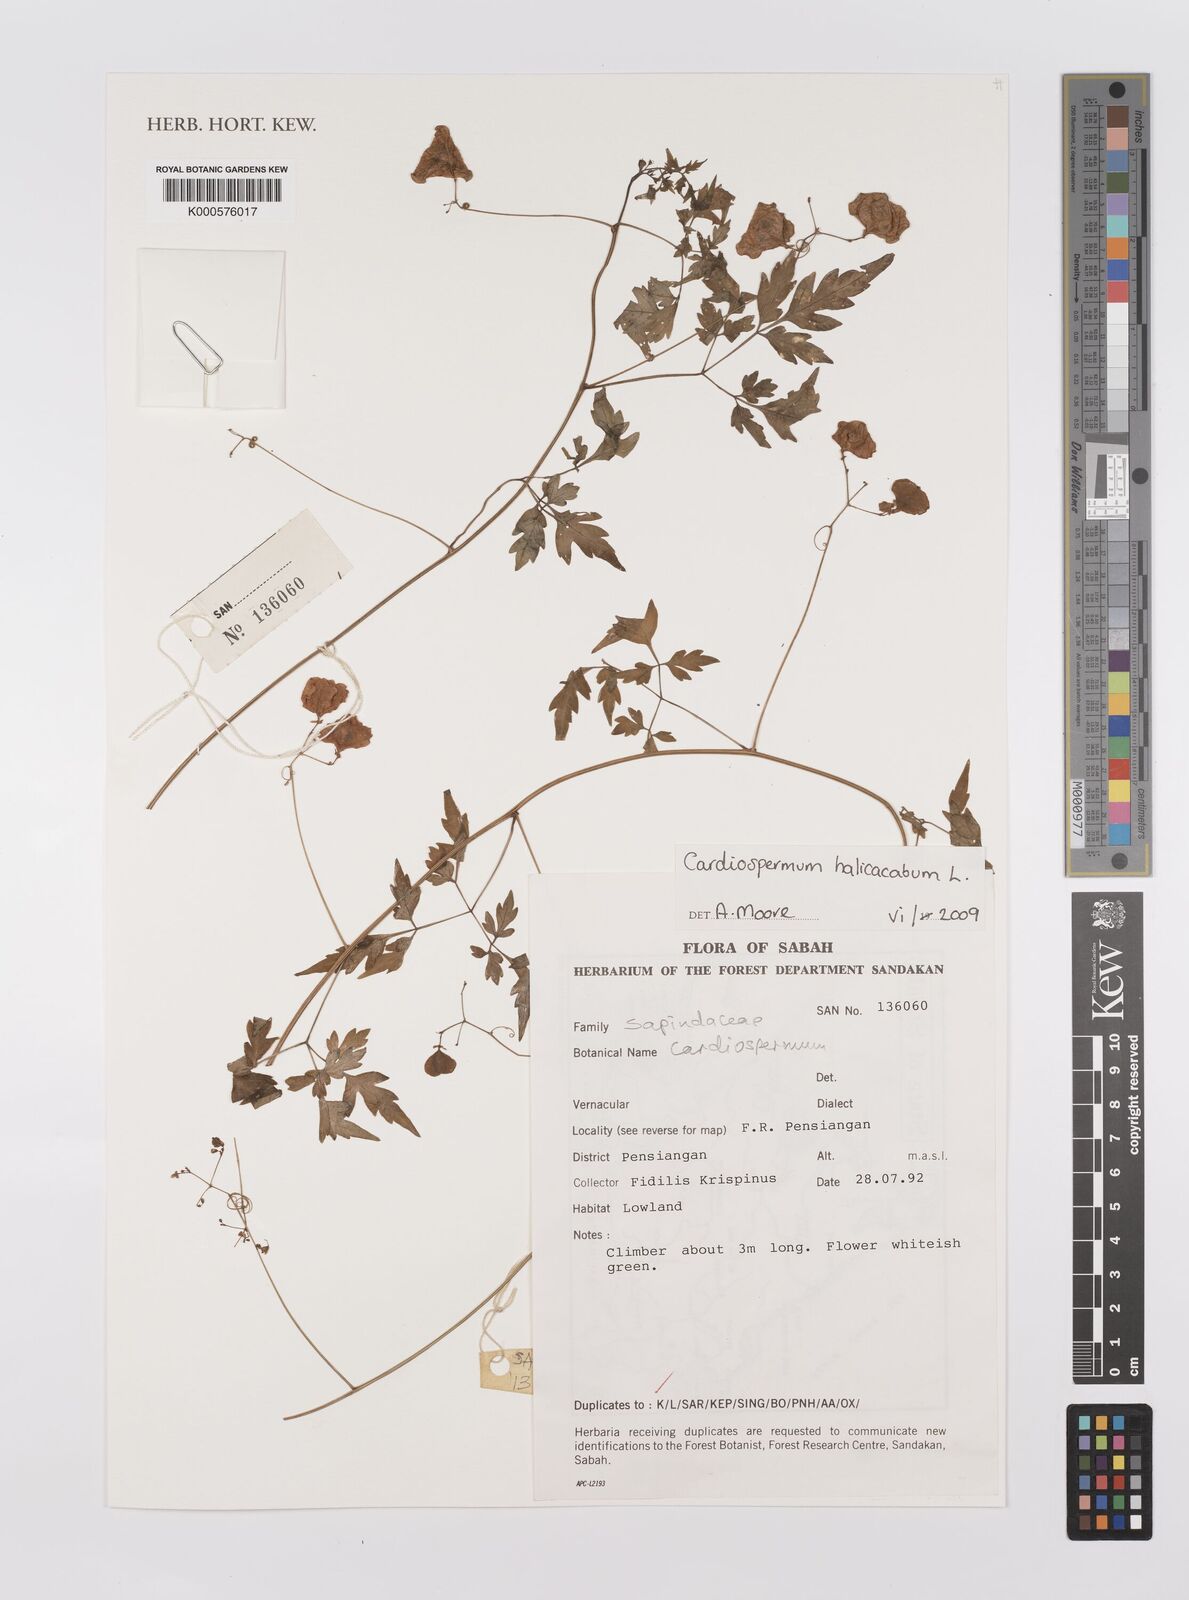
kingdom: Plantae
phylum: Tracheophyta
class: Magnoliopsida
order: Sapindales
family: Sapindaceae
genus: Cardiospermum
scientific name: Cardiospermum halicacabum
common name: Balloon vine
